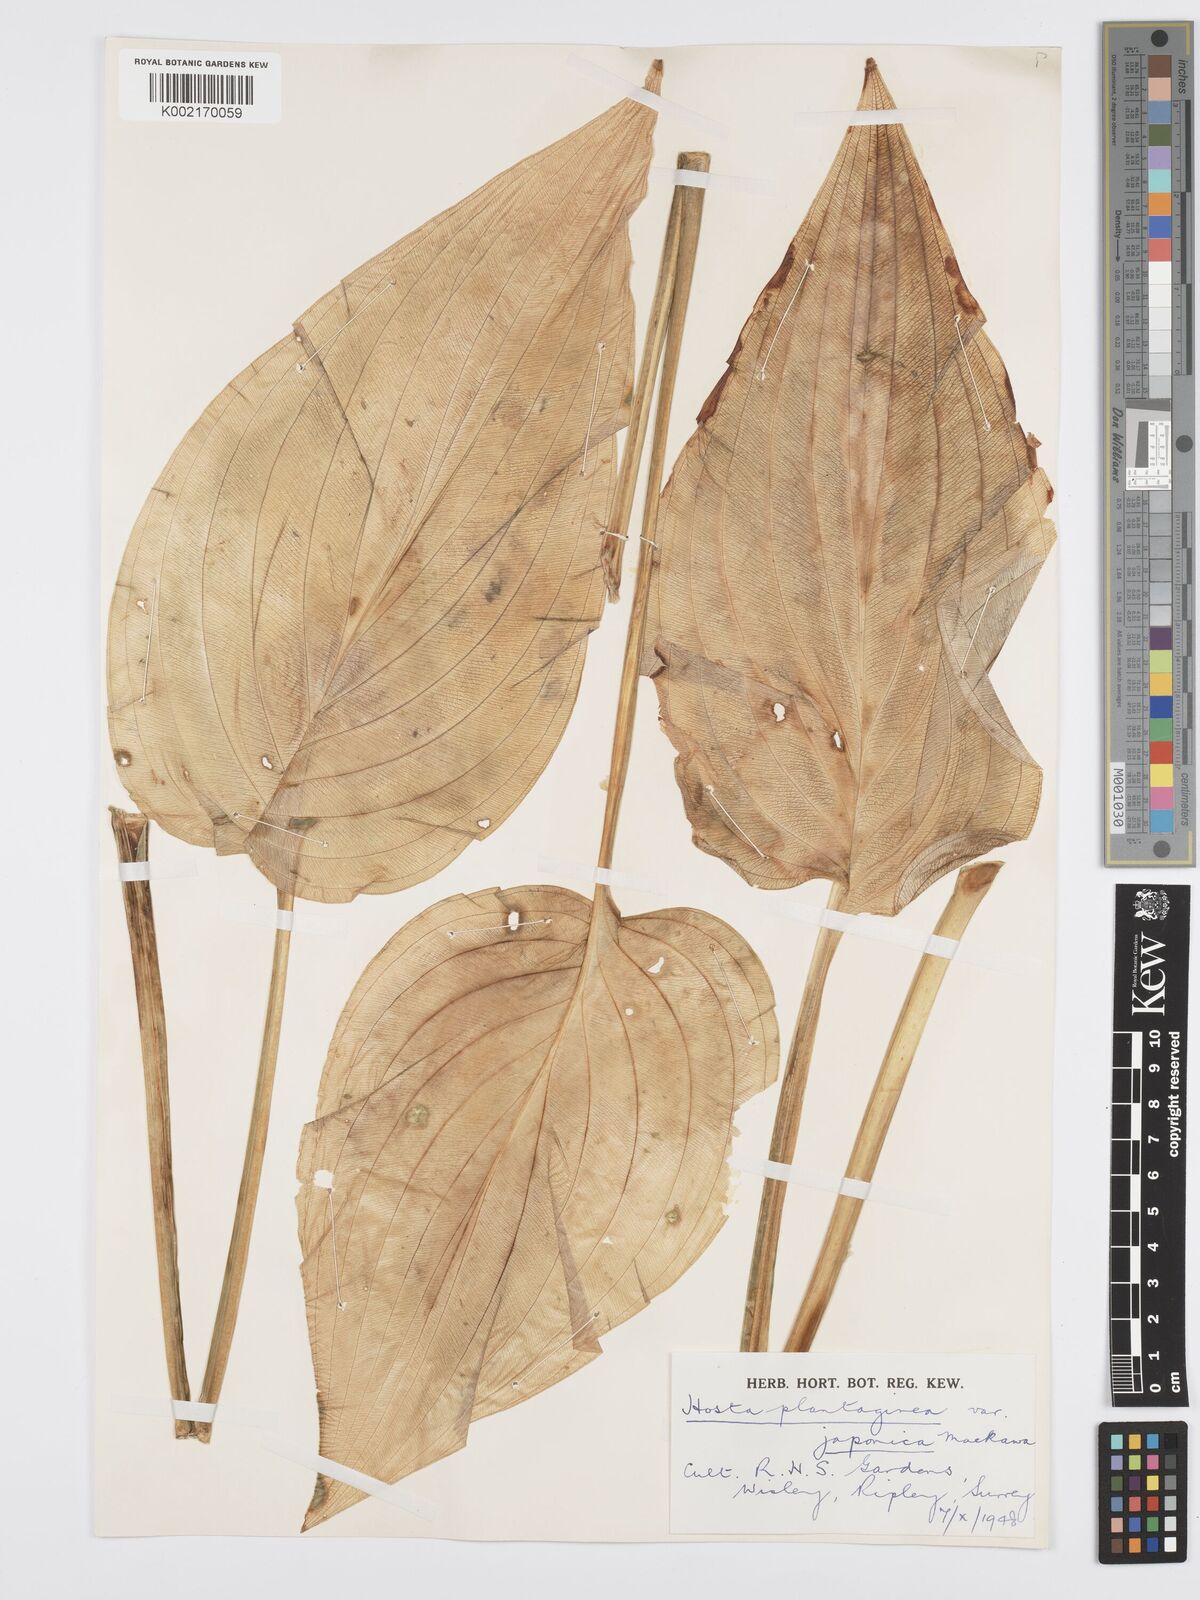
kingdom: Plantae
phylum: Tracheophyta
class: Liliopsida
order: Asparagales
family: Asparagaceae
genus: Hosta
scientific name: Hosta plantaginea
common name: August-lily
